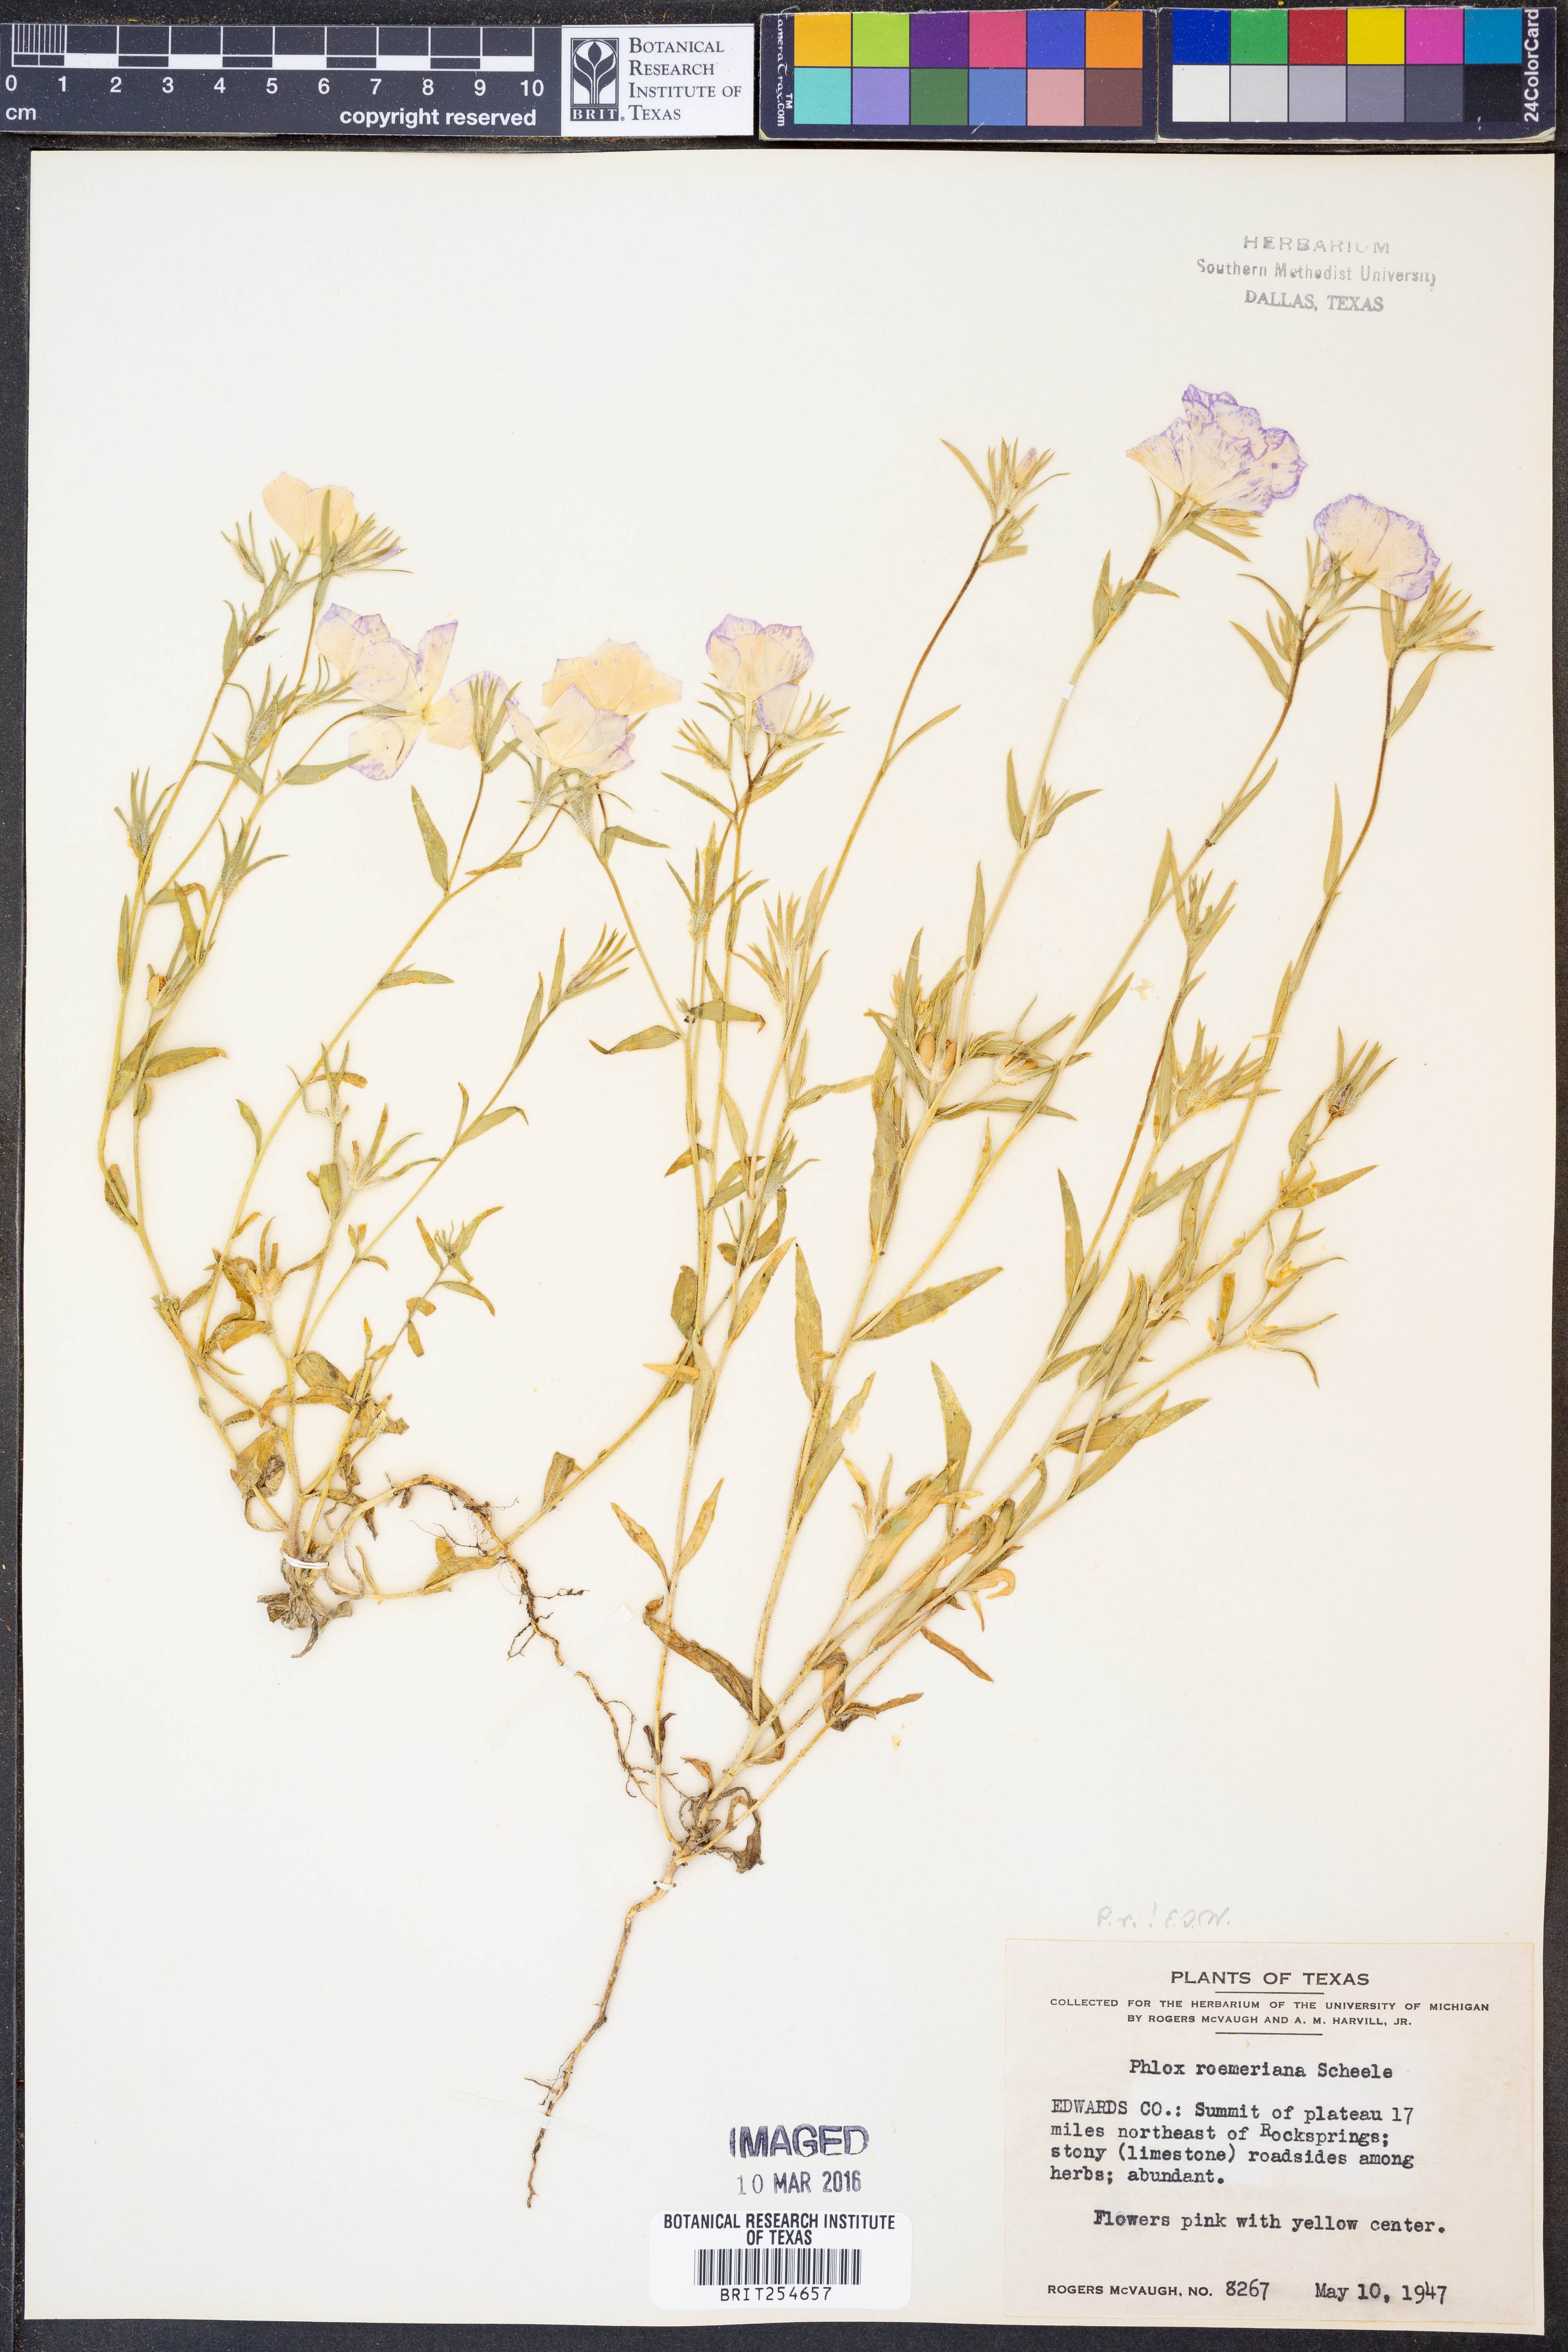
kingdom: Plantae
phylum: Tracheophyta
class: Magnoliopsida
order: Ericales
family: Polemoniaceae
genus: Phlox
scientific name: Phlox roemeriana
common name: Roemer's phlox
